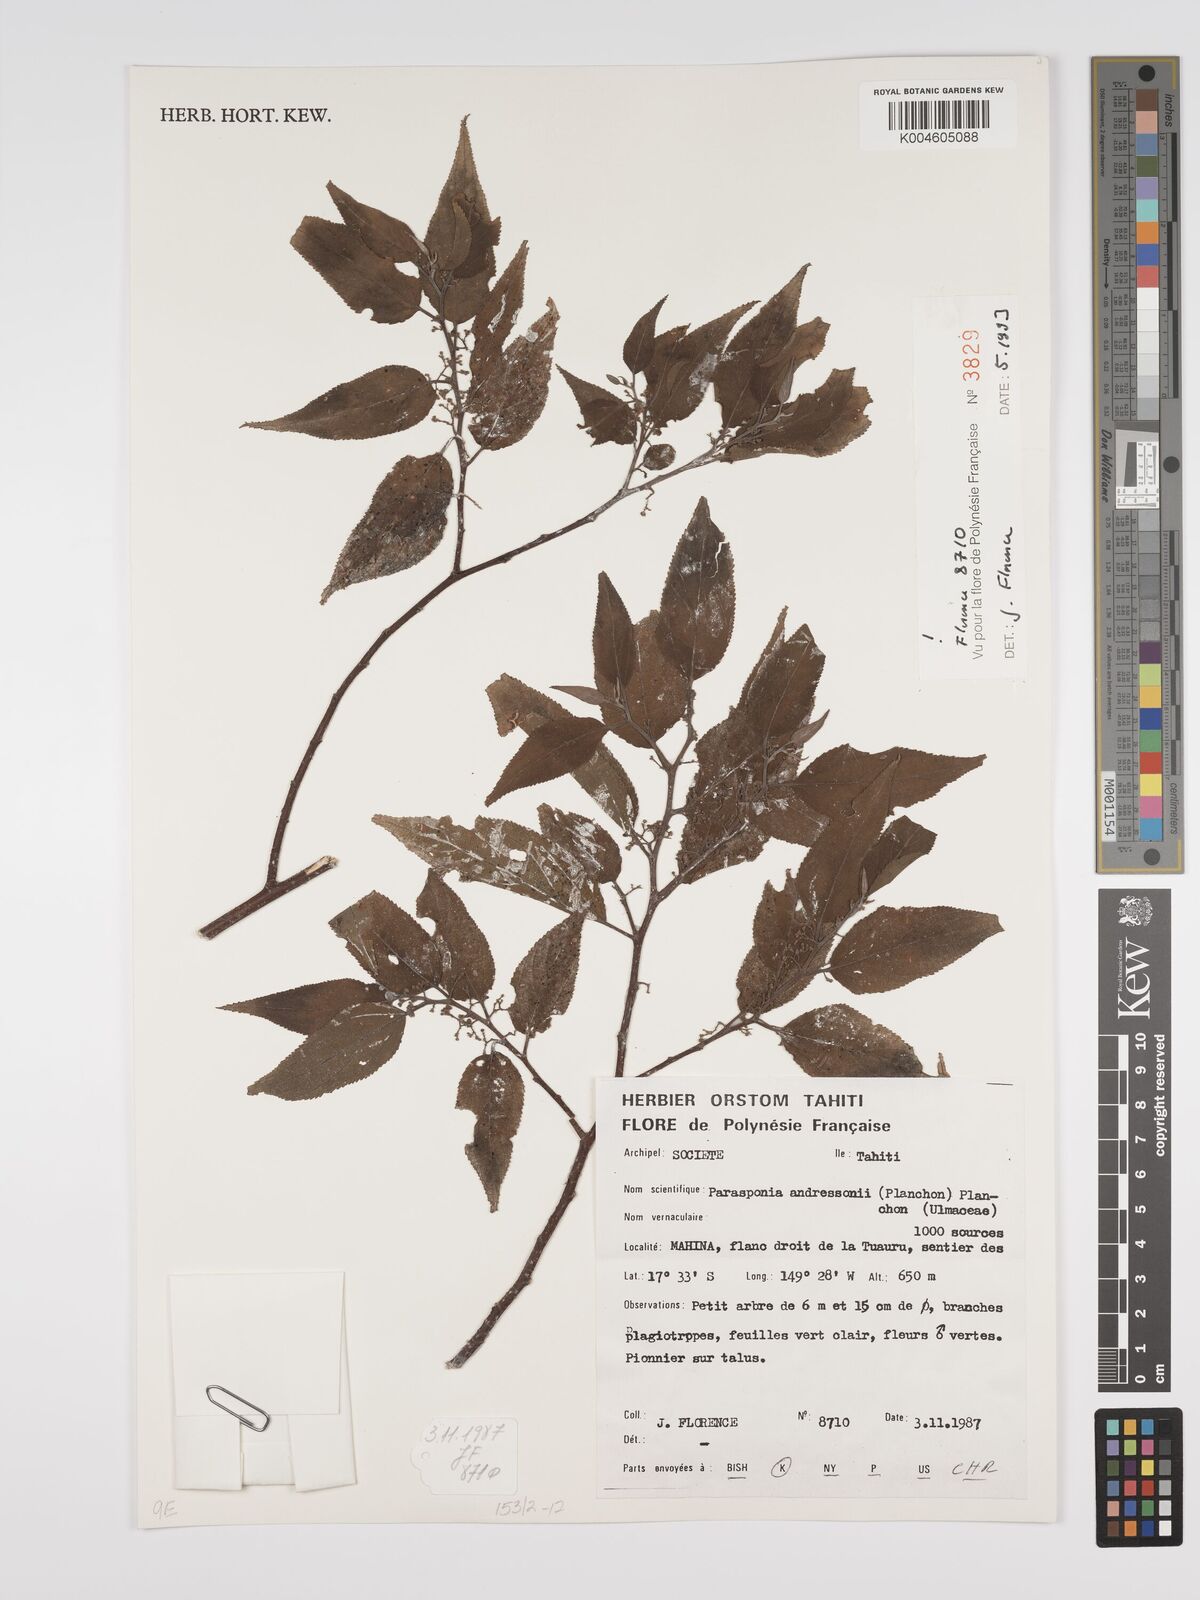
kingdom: Plantae
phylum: Tracheophyta
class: Magnoliopsida
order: Rosales
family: Cannabaceae
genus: Trema
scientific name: Trema andersonii
